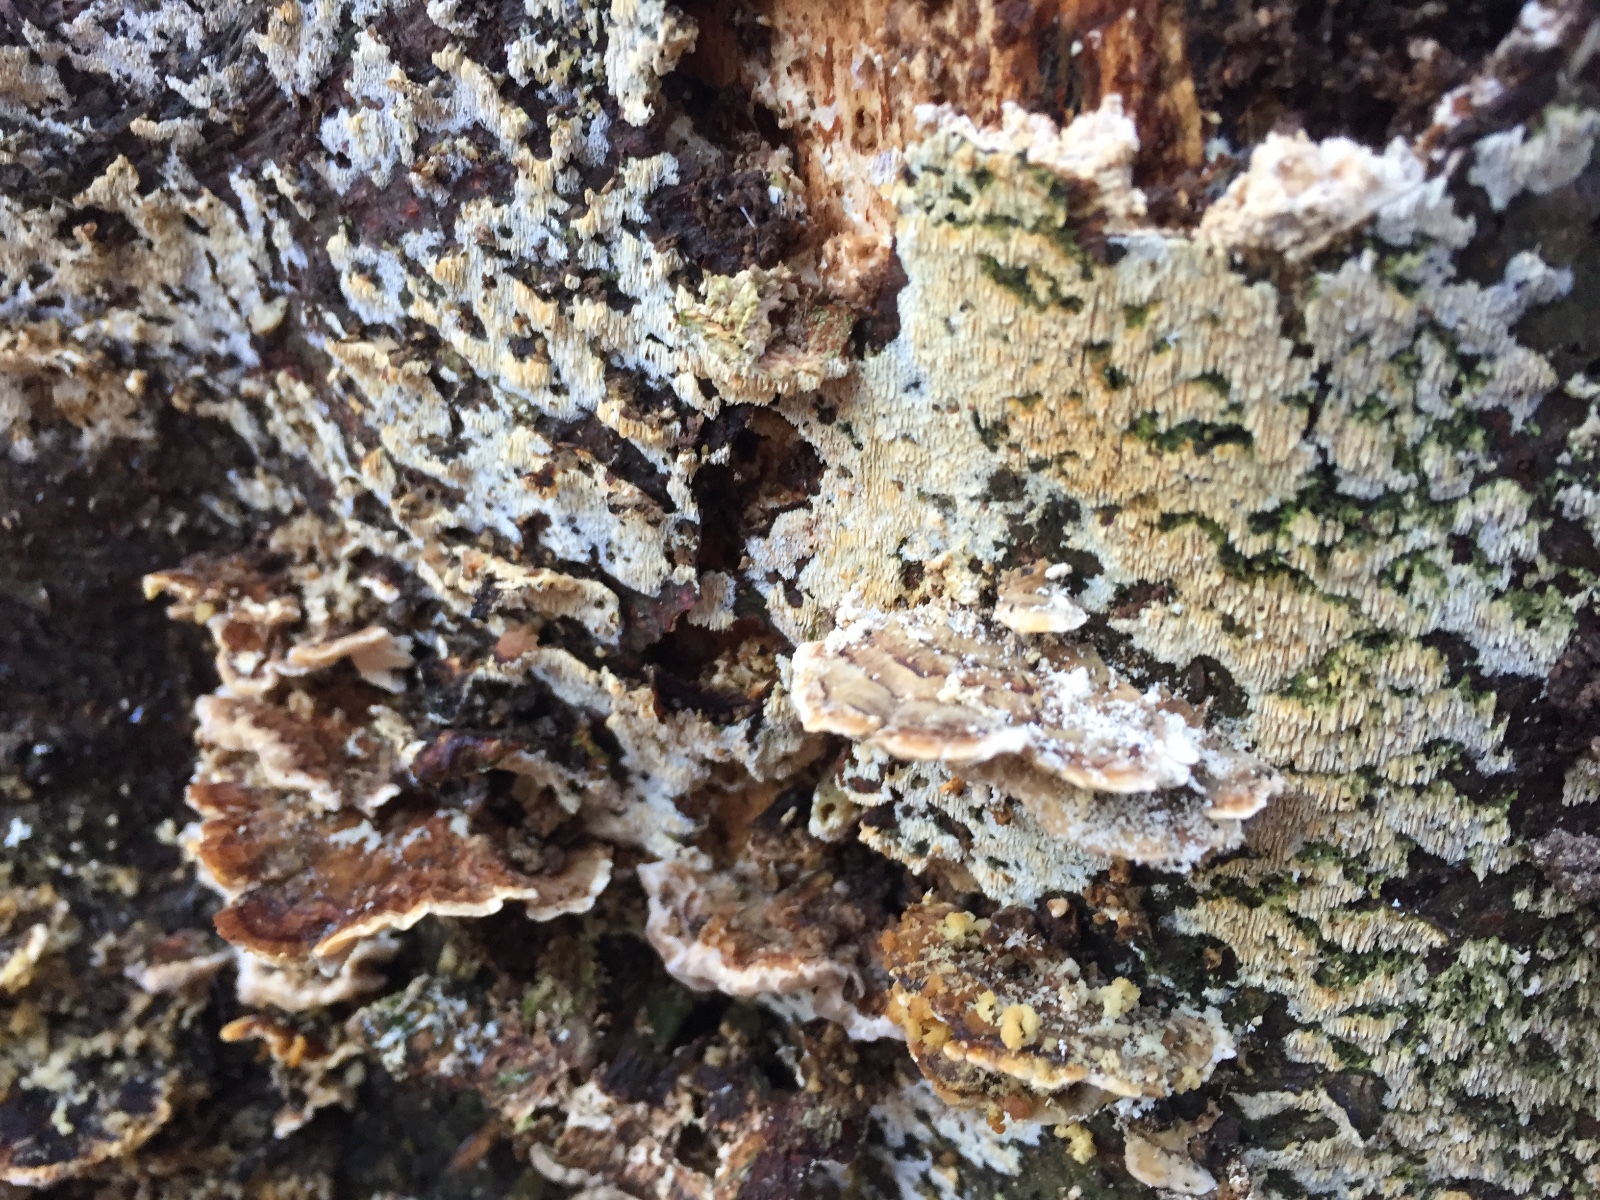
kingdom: Fungi
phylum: Basidiomycota
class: Agaricomycetes
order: Hymenochaetales
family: Schizoporaceae
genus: Xylodon
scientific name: Xylodon
